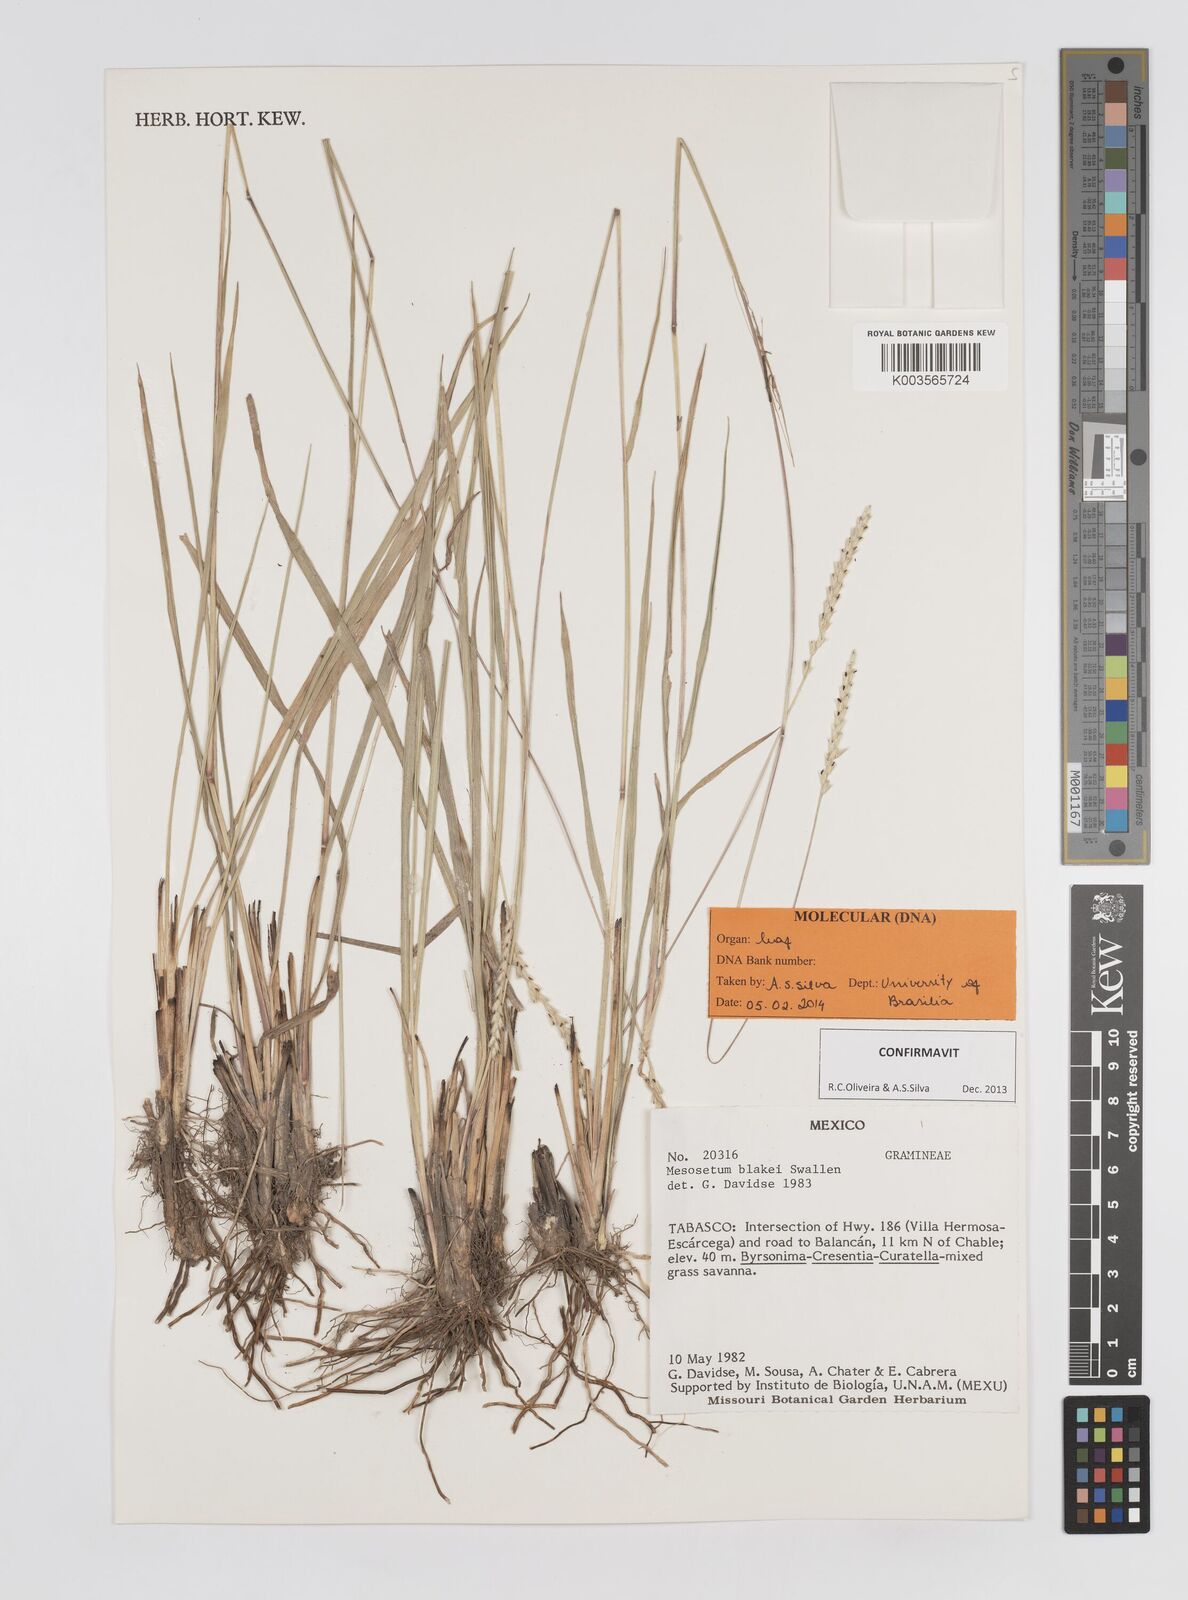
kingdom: Plantae
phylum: Tracheophyta
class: Liliopsida
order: Poales
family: Poaceae
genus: Mesosetum
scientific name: Mesosetum blakei
